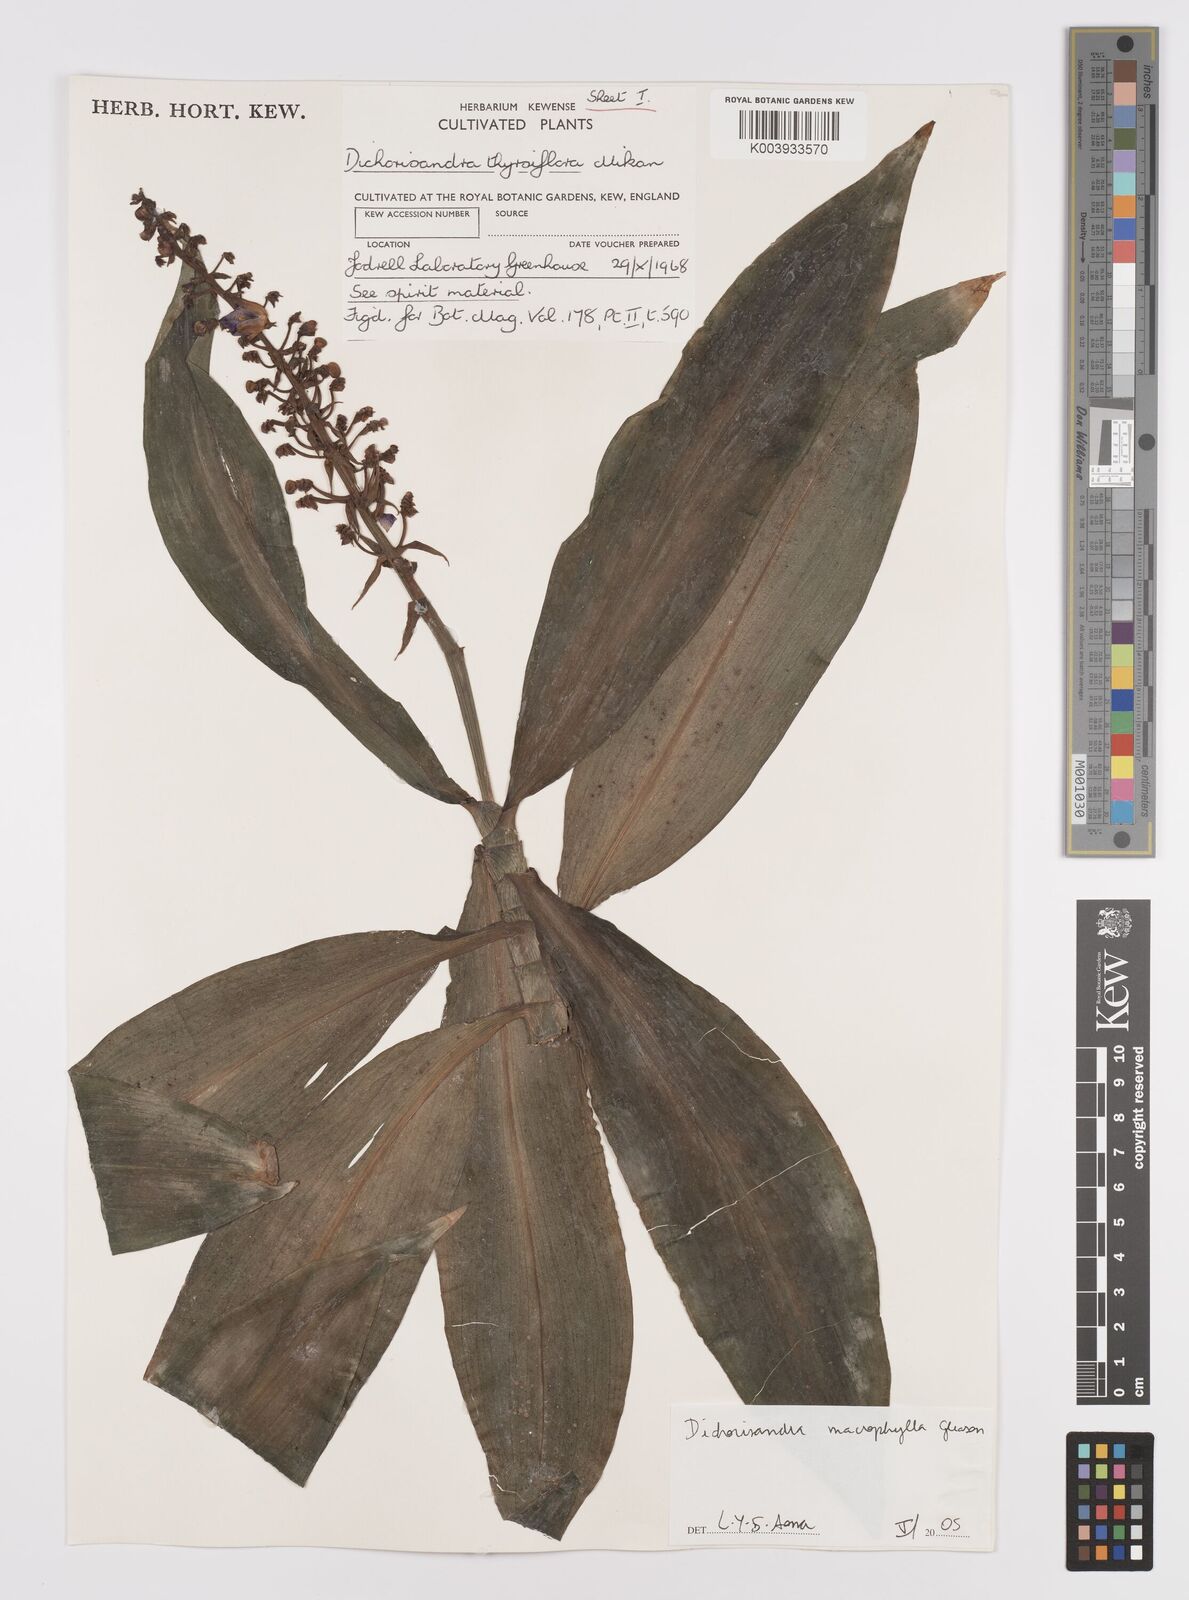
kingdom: Plantae
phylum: Tracheophyta
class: Liliopsida
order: Commelinales
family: Commelinaceae
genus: Dichorisandra
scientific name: Dichorisandra albomarginata
